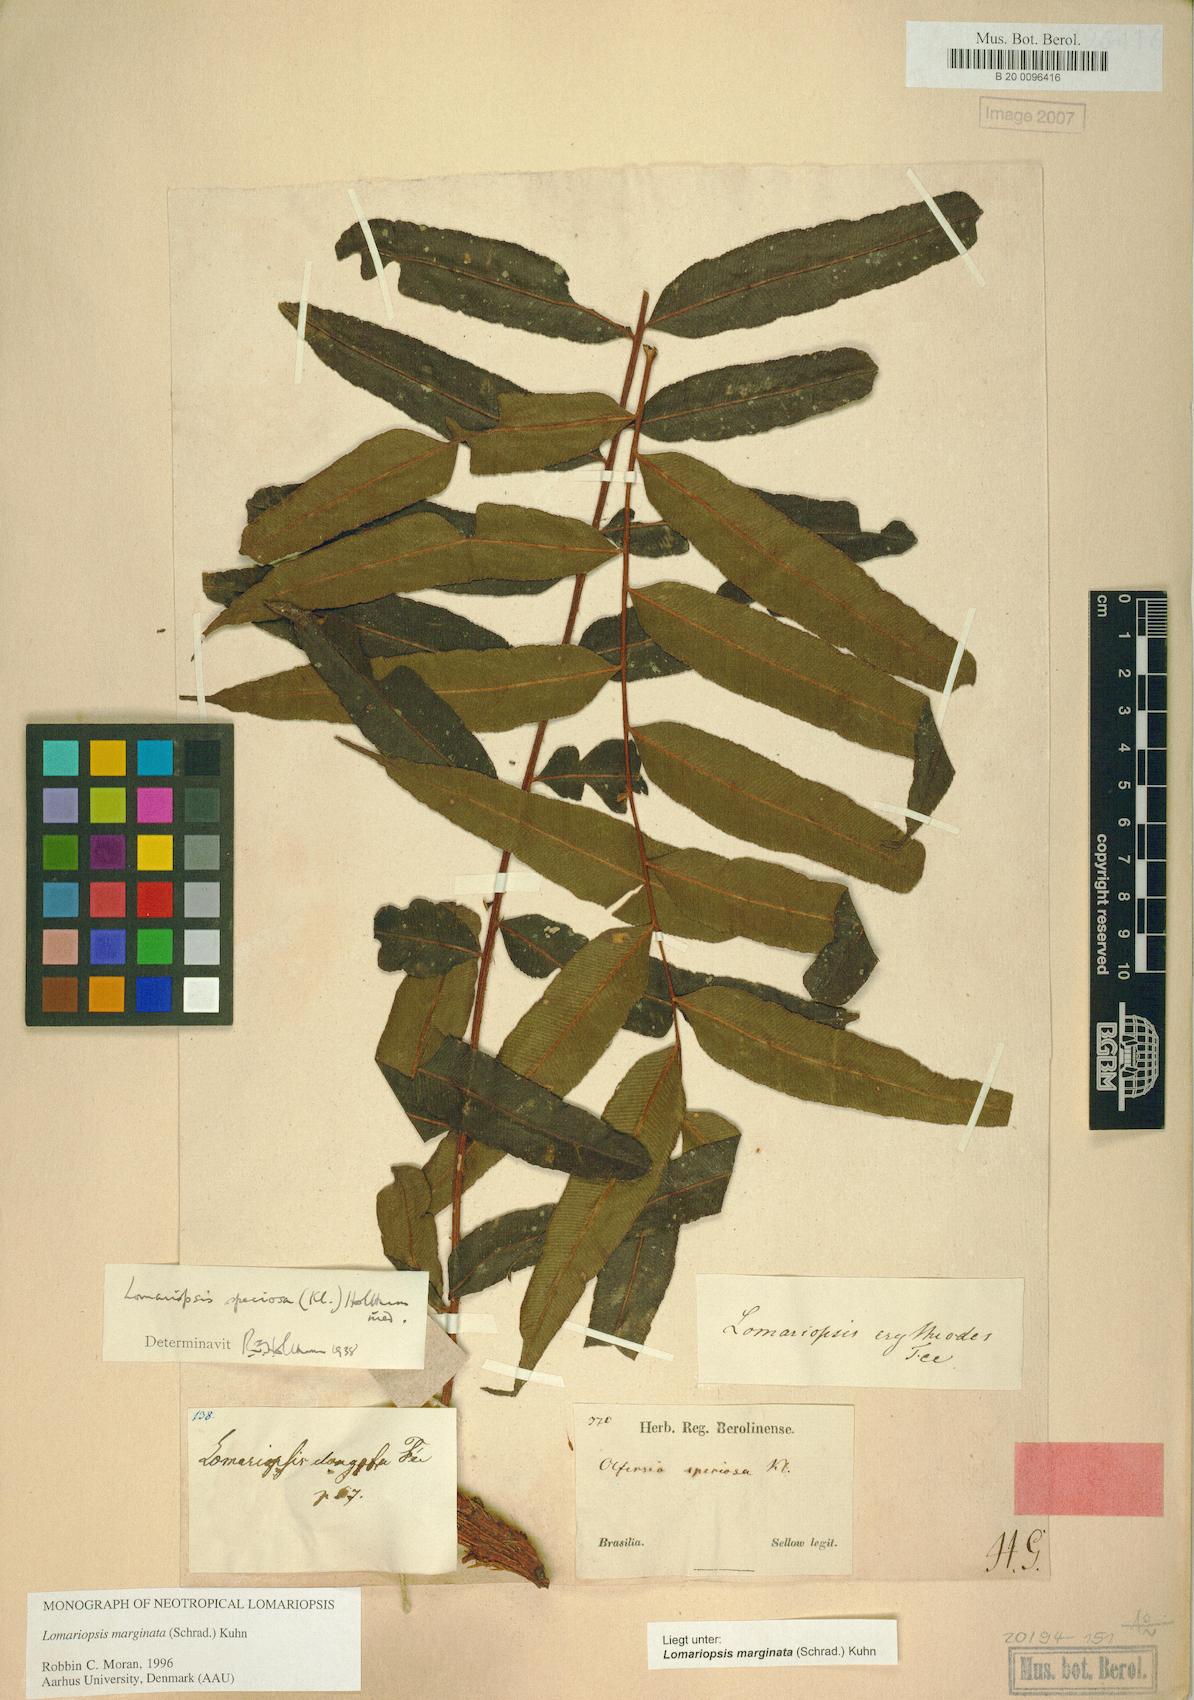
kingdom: Plantae
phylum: Tracheophyta
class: Polypodiopsida
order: Polypodiales
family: Lomariopsidaceae
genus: Lomariopsis
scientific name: Lomariopsis marginata
